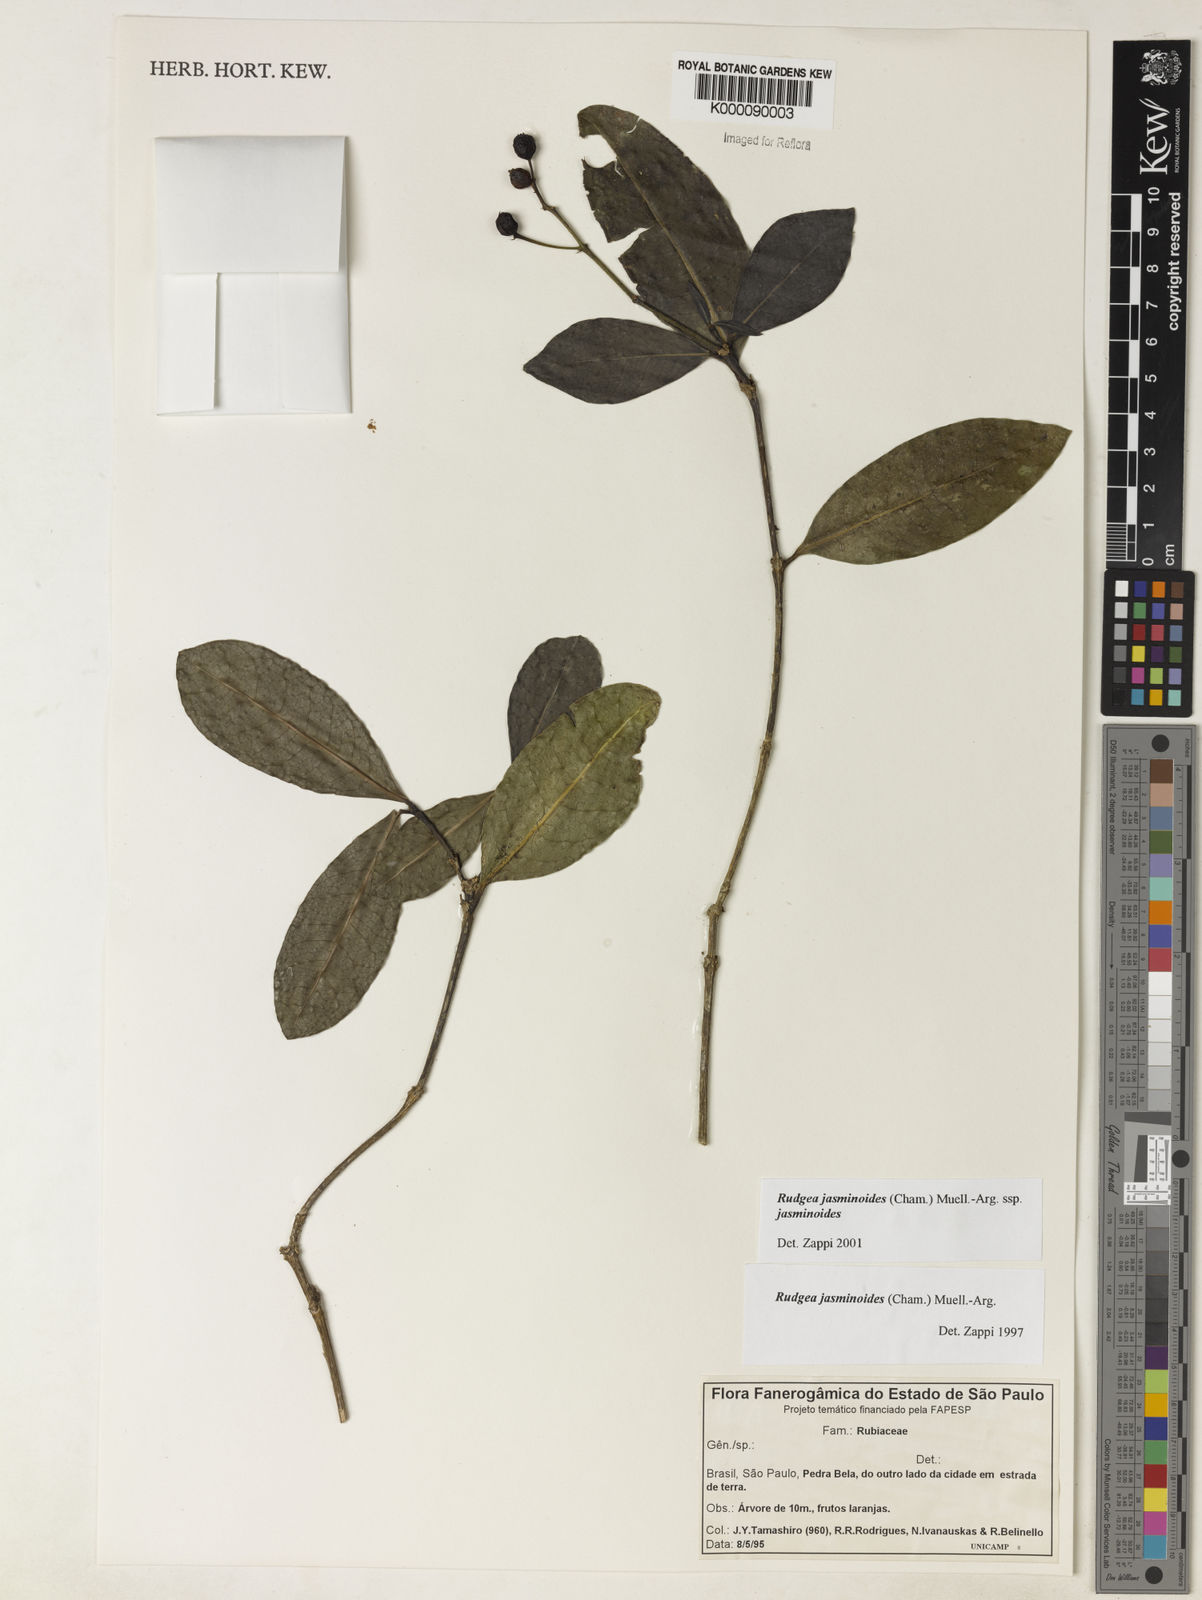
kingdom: Plantae
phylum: Tracheophyta
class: Magnoliopsida
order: Gentianales
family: Rubiaceae
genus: Rudgea
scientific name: Rudgea jasminoides
